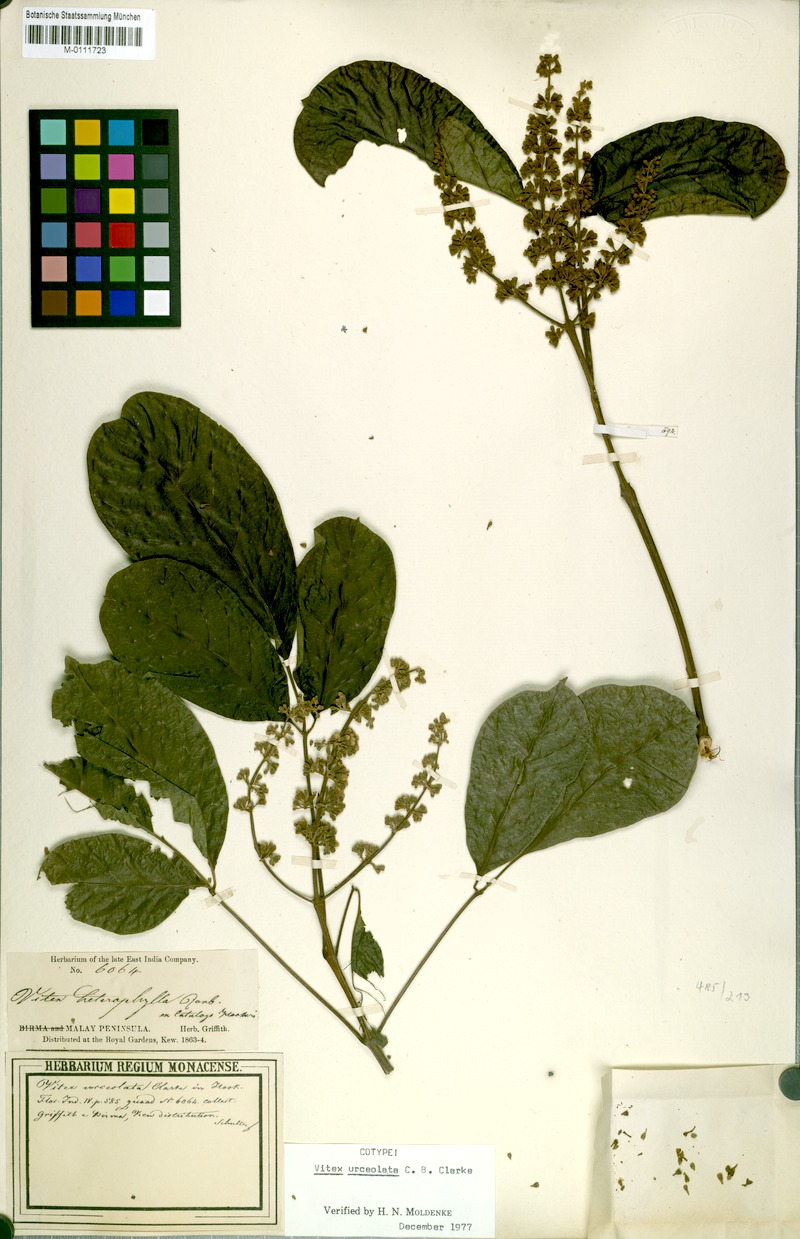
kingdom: Plantae
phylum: Tracheophyta
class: Magnoliopsida
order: Lamiales
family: Lamiaceae
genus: Vitex
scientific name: Vitex quinata
